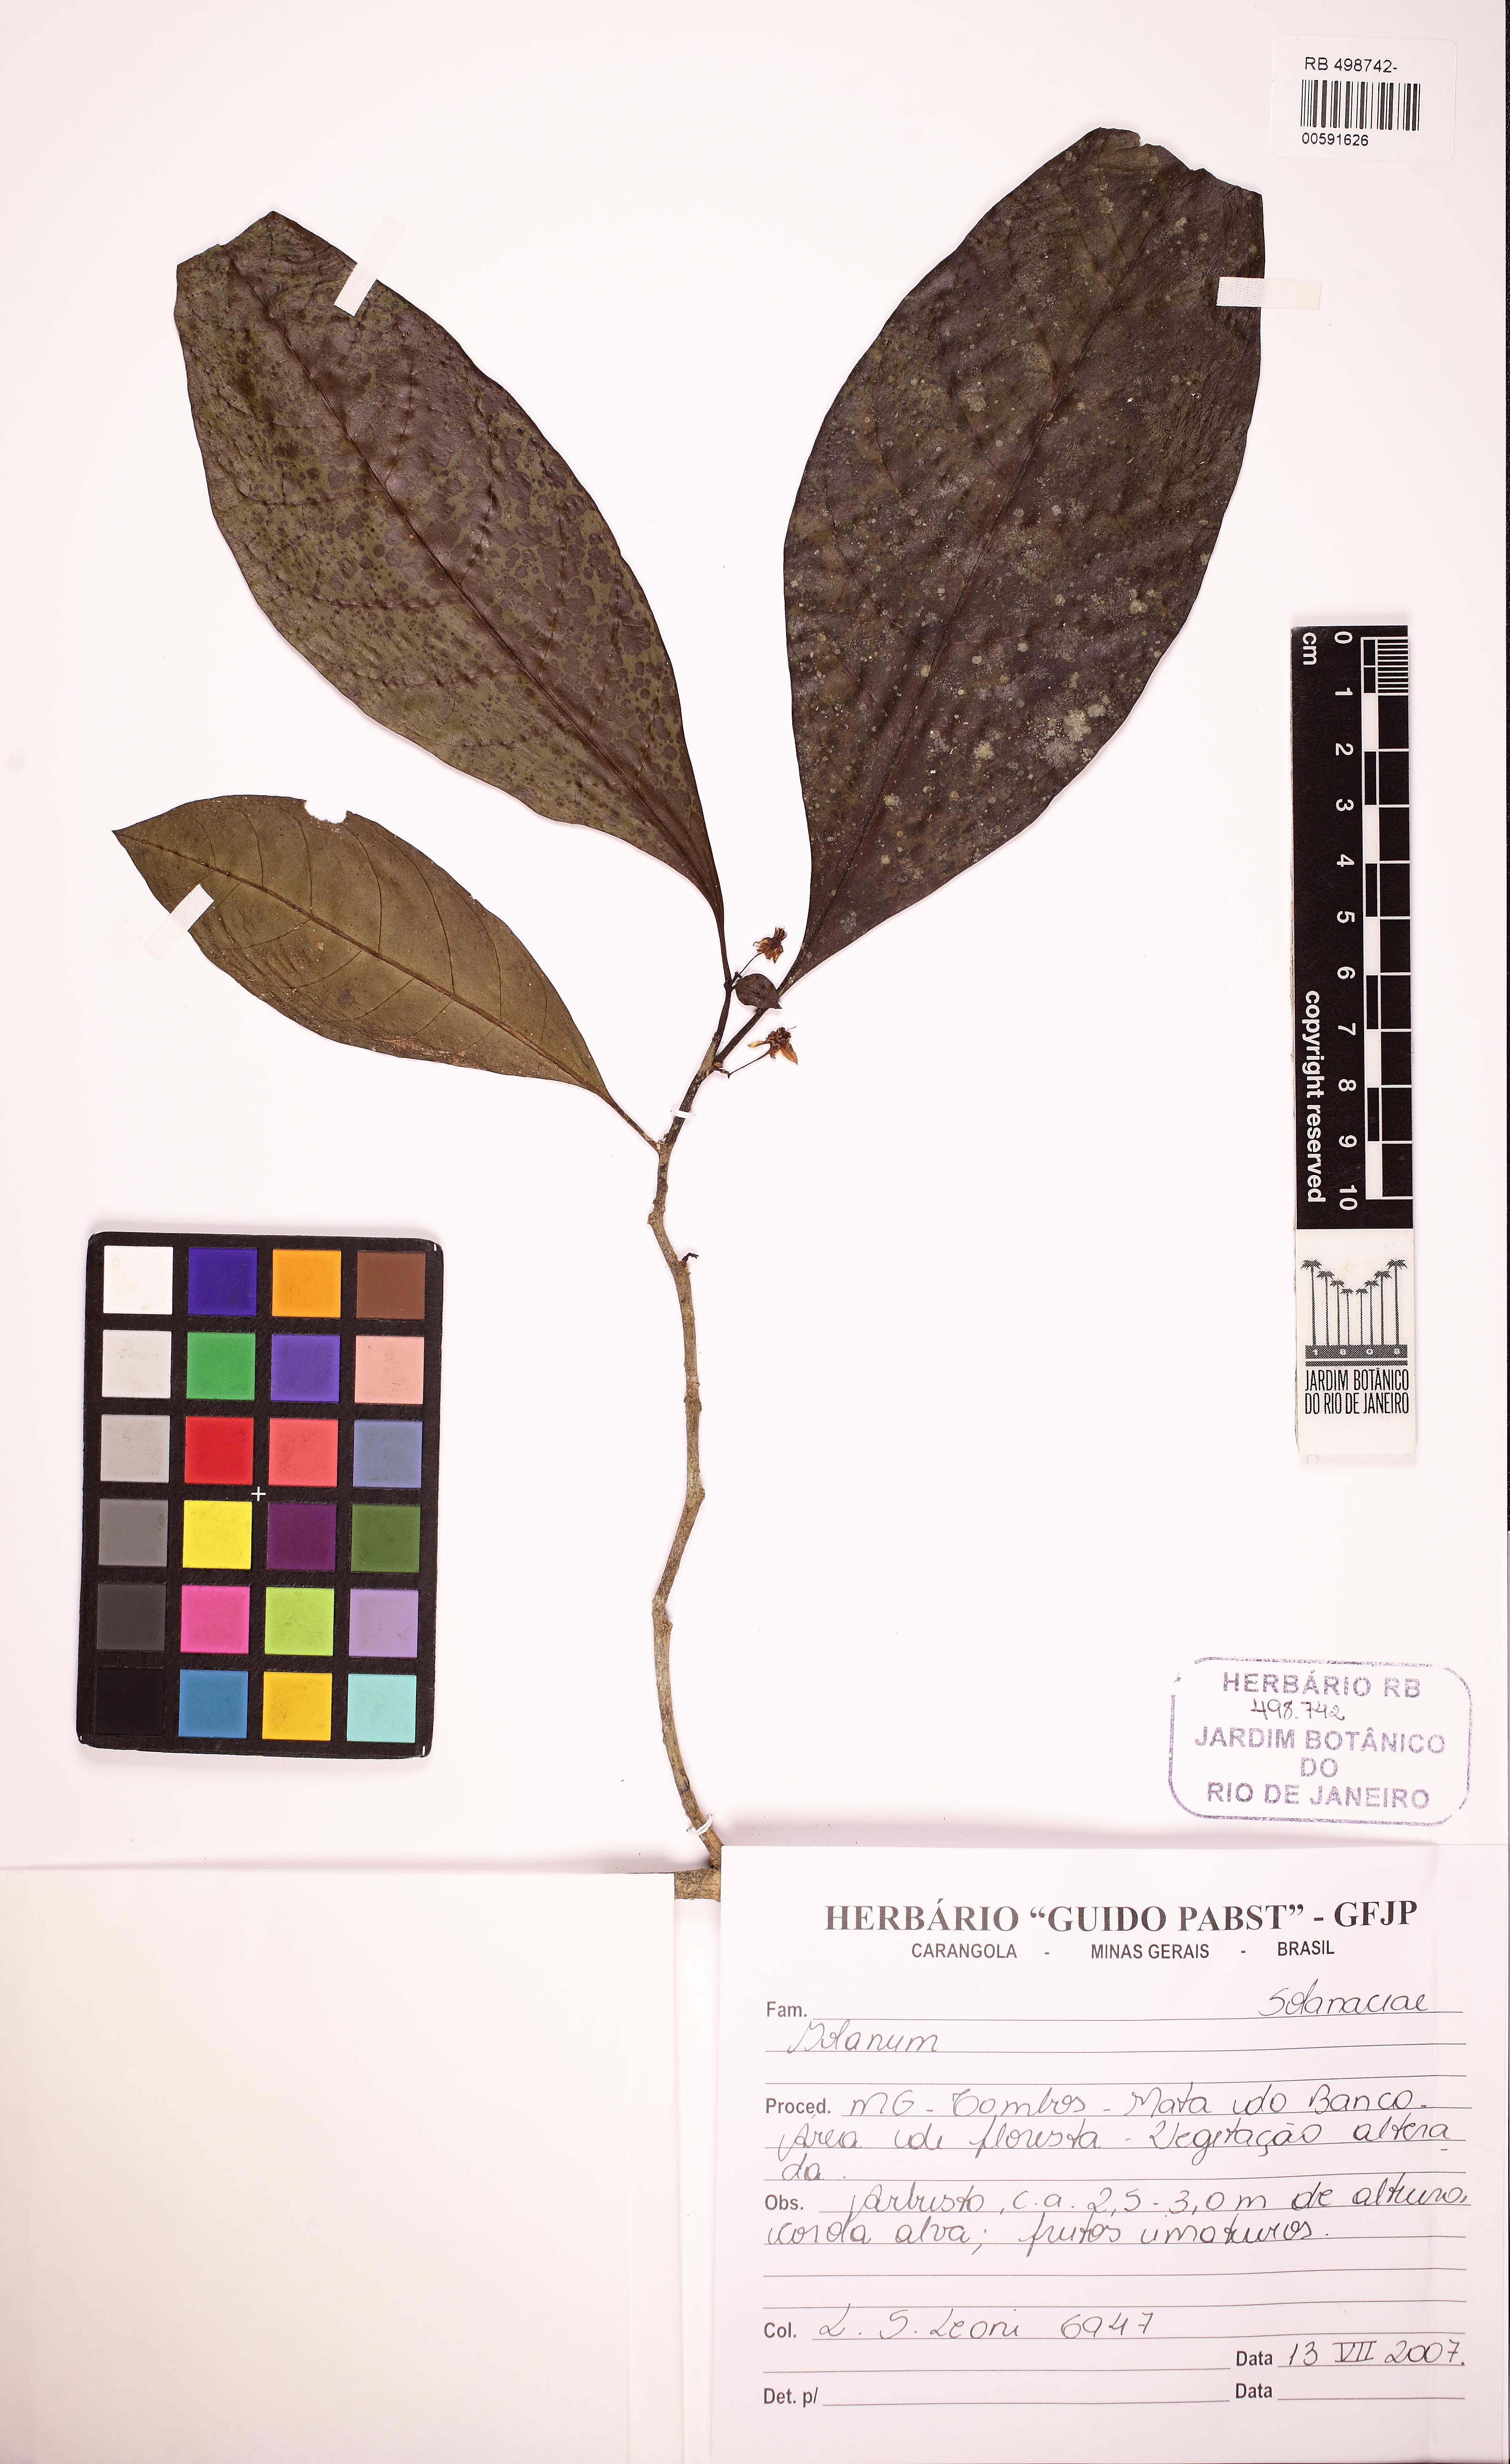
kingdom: Plantae
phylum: Tracheophyta
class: Magnoliopsida
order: Solanales
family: Solanaceae
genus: Solanum
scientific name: Solanum lacteum
